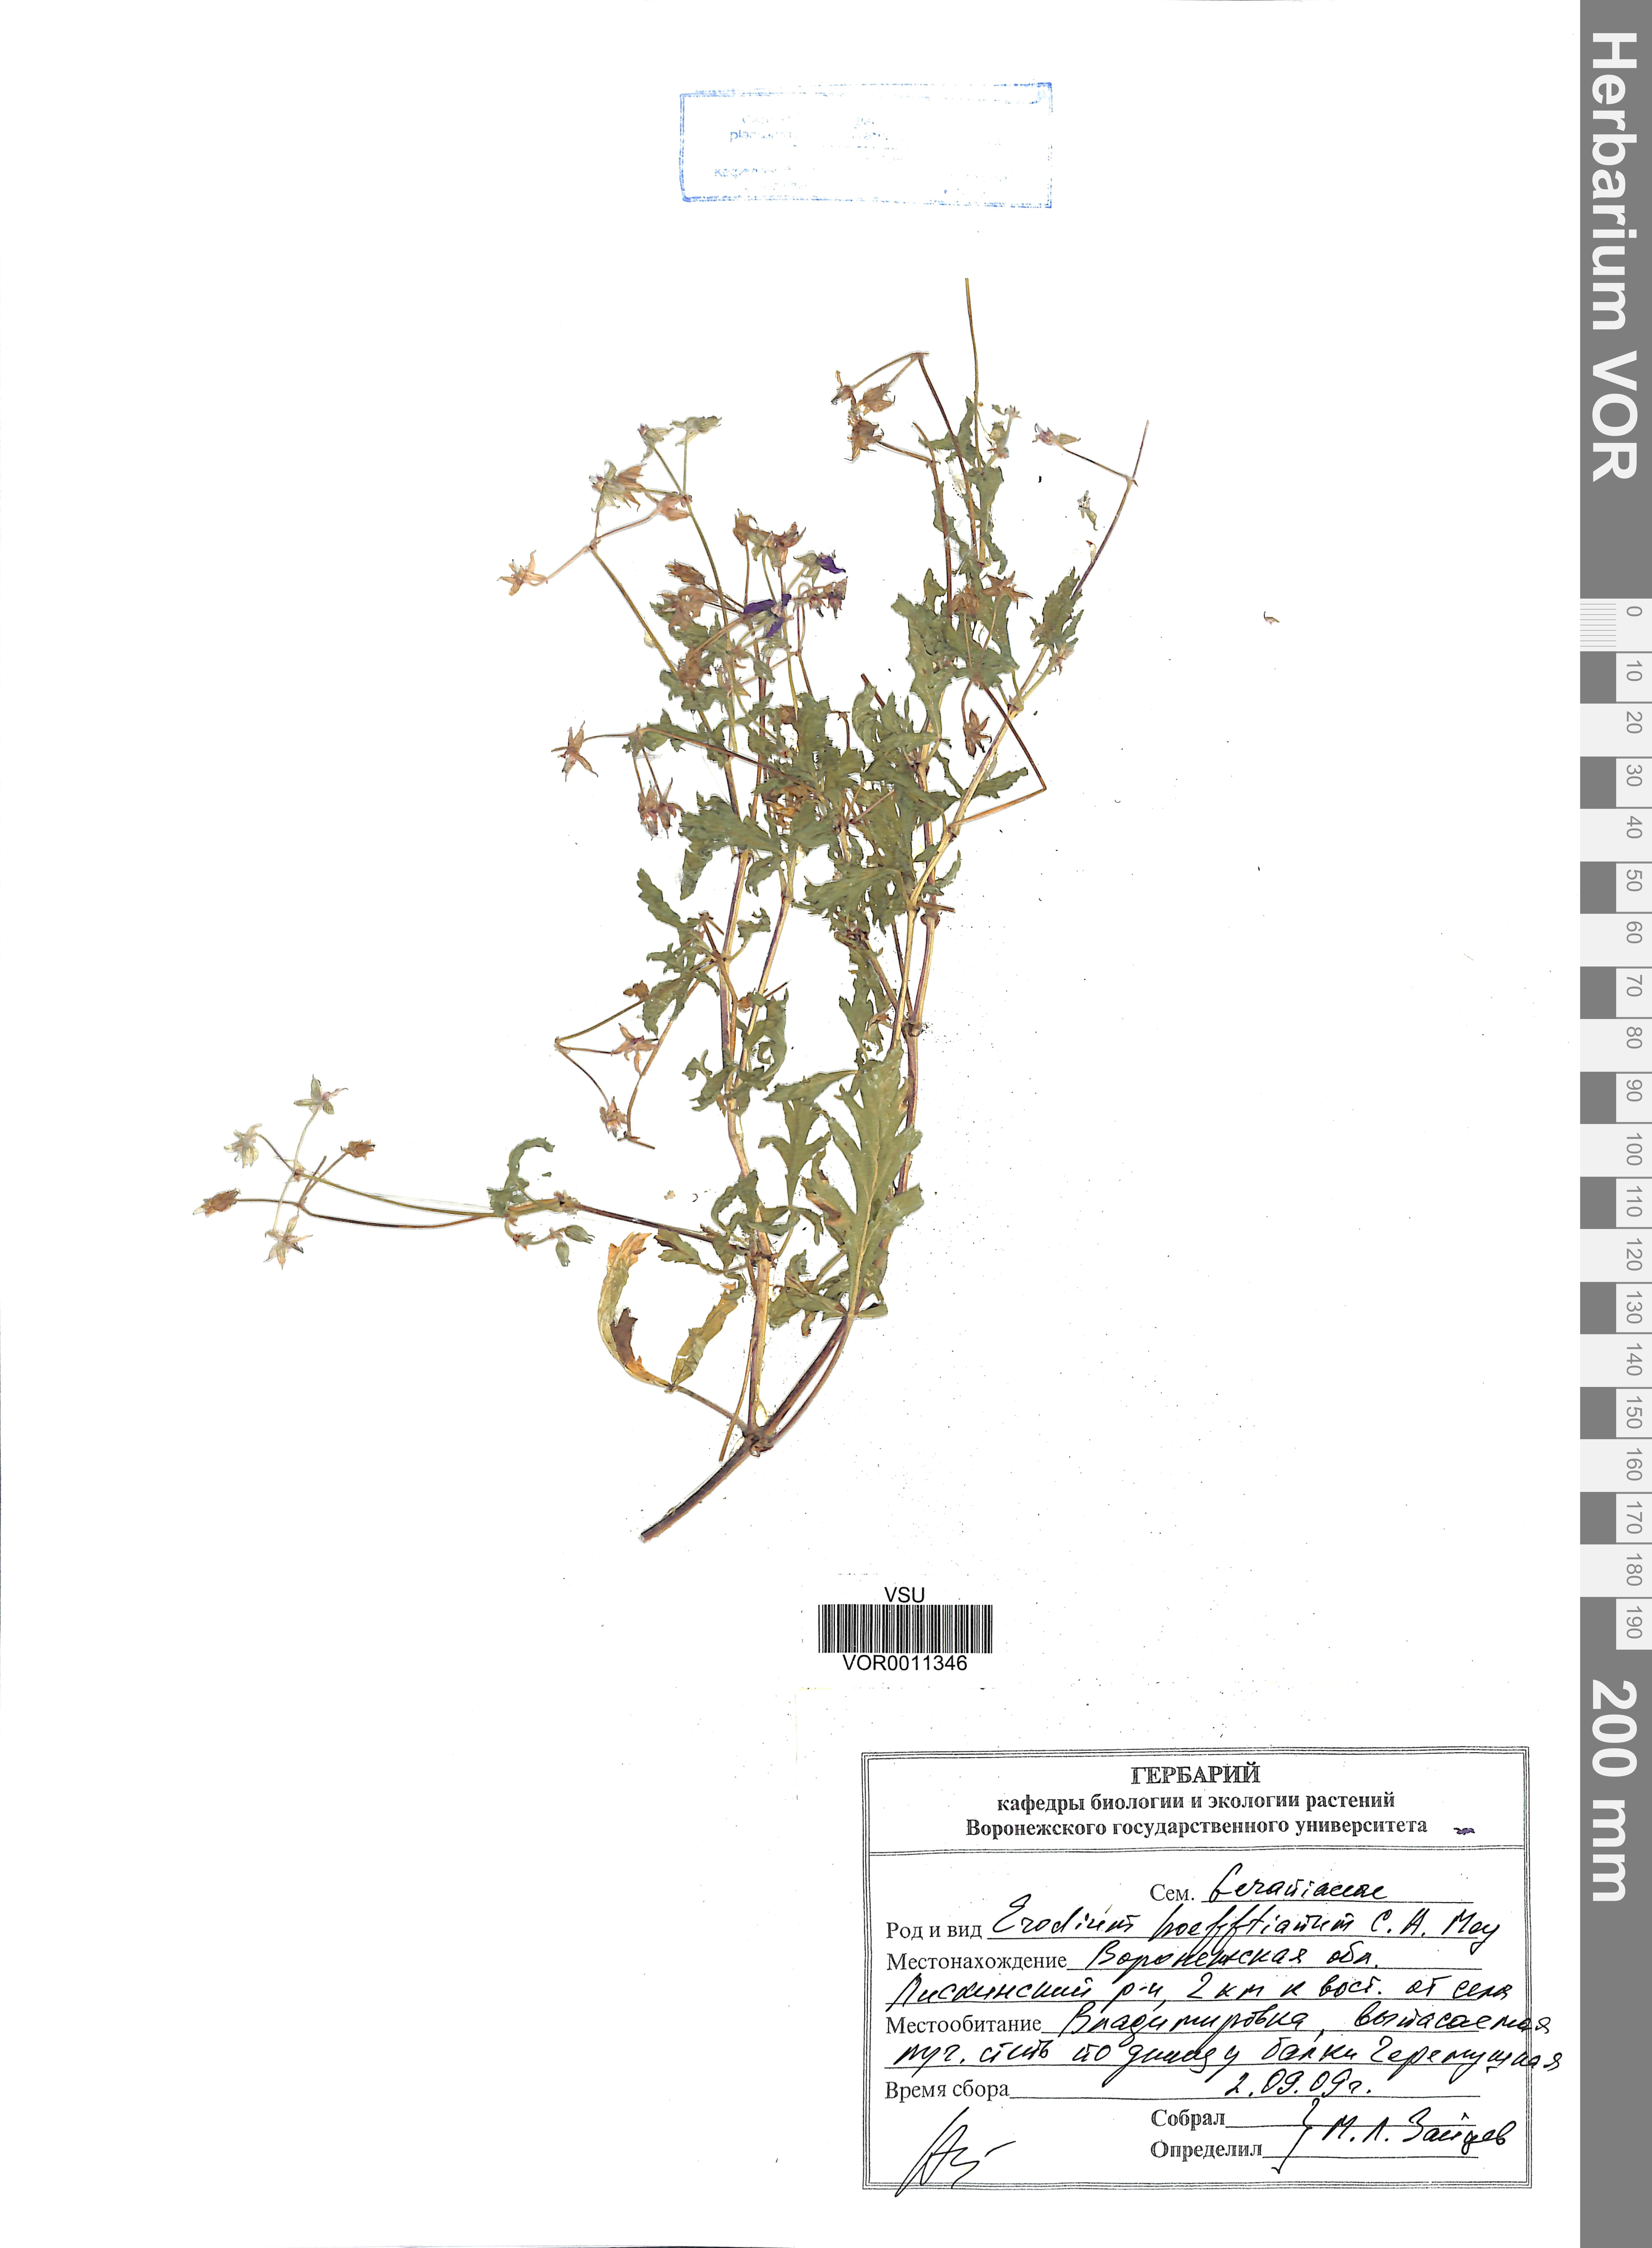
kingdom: Plantae
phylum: Tracheophyta
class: Magnoliopsida
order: Geraniales
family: Geraniaceae
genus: Erodium
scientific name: Erodium hoefftianum
